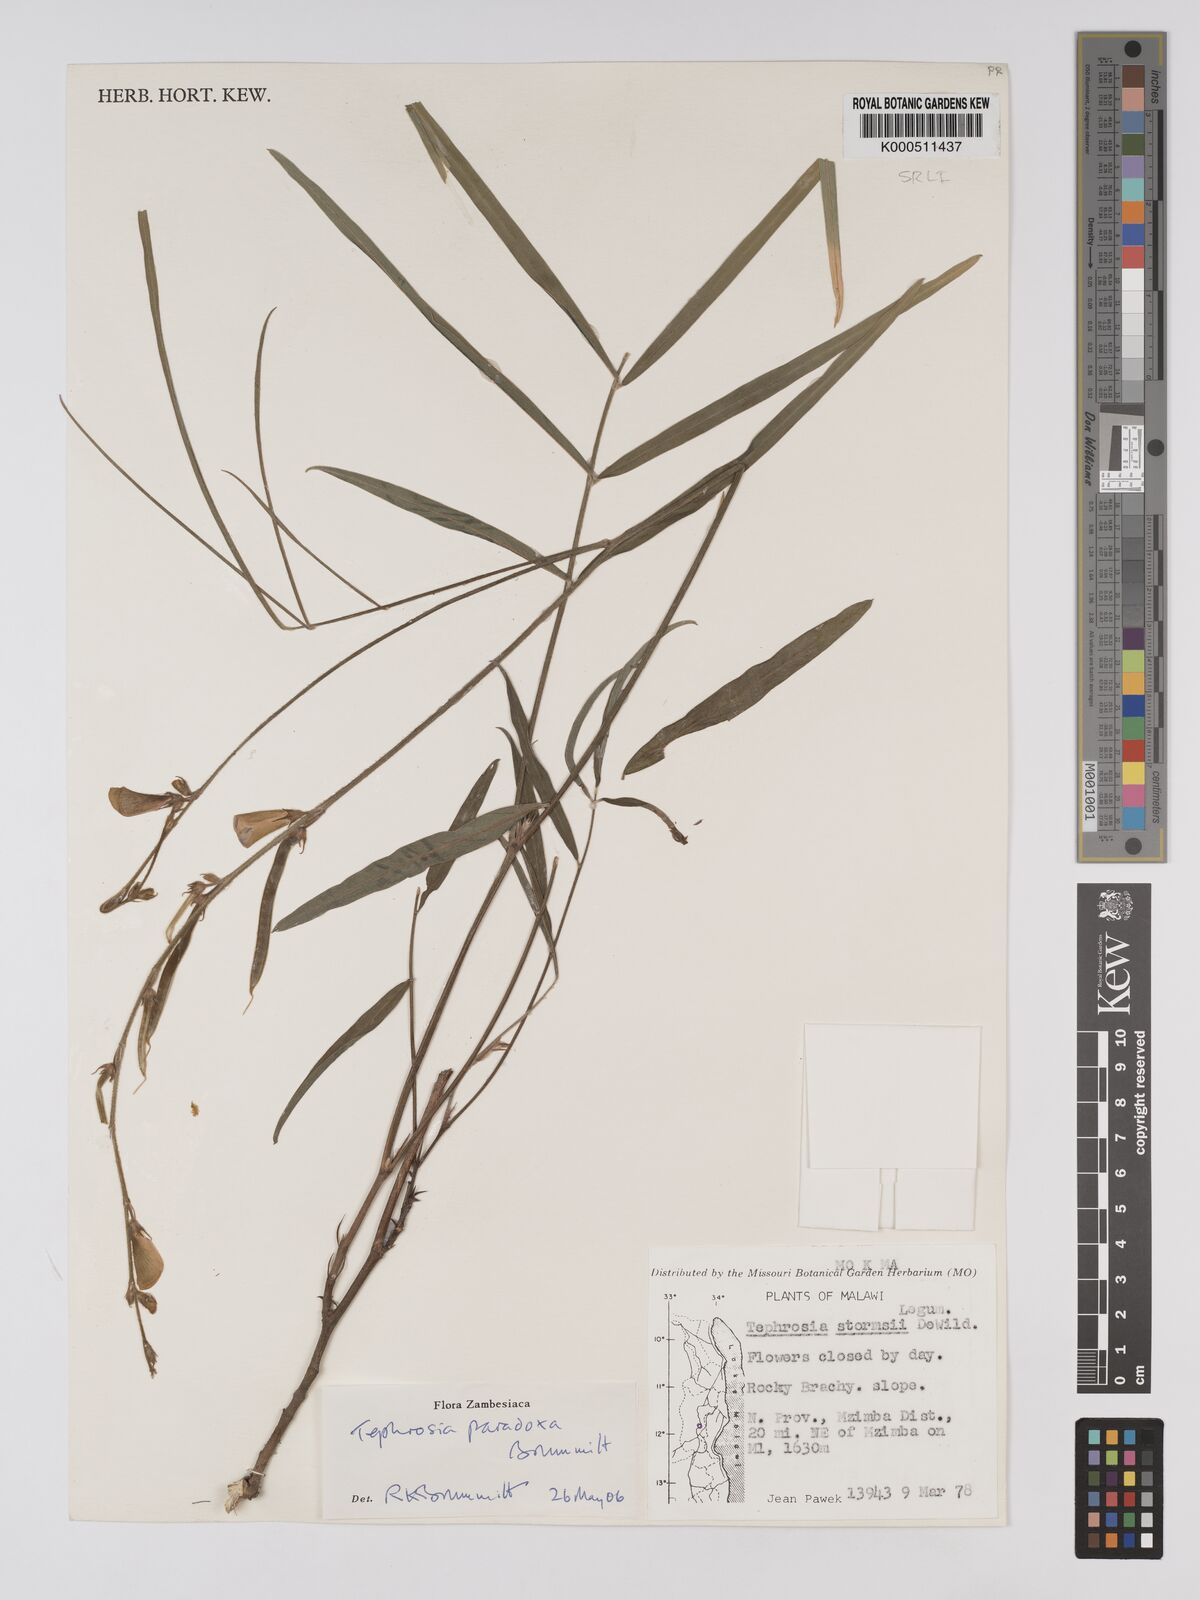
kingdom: Plantae
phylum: Tracheophyta
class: Magnoliopsida
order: Fabales
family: Fabaceae
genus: Tephrosia
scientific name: Tephrosia paradoxa
